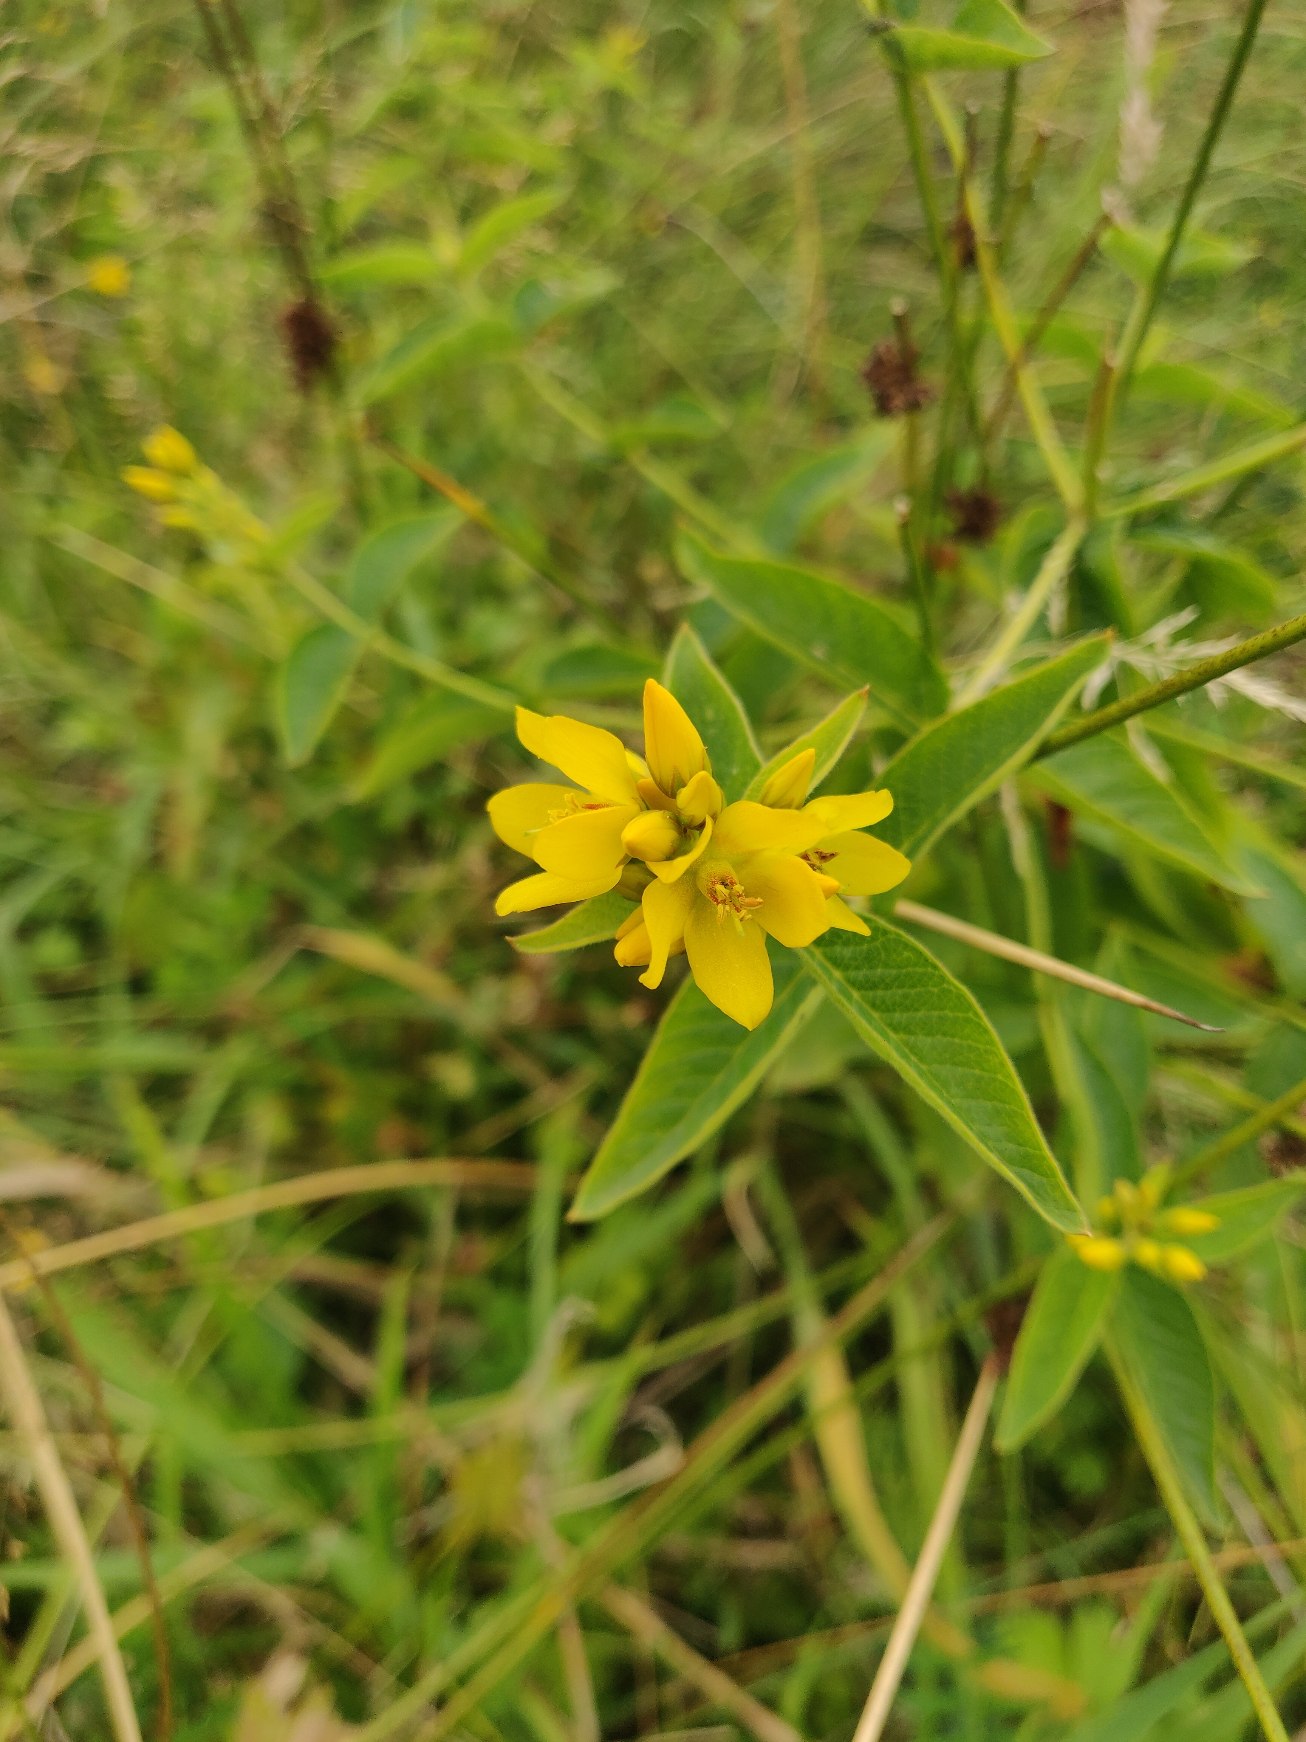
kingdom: Plantae
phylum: Tracheophyta
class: Magnoliopsida
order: Ericales
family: Primulaceae
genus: Lysimachia
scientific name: Lysimachia vulgaris
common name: Almindelig fredløs
